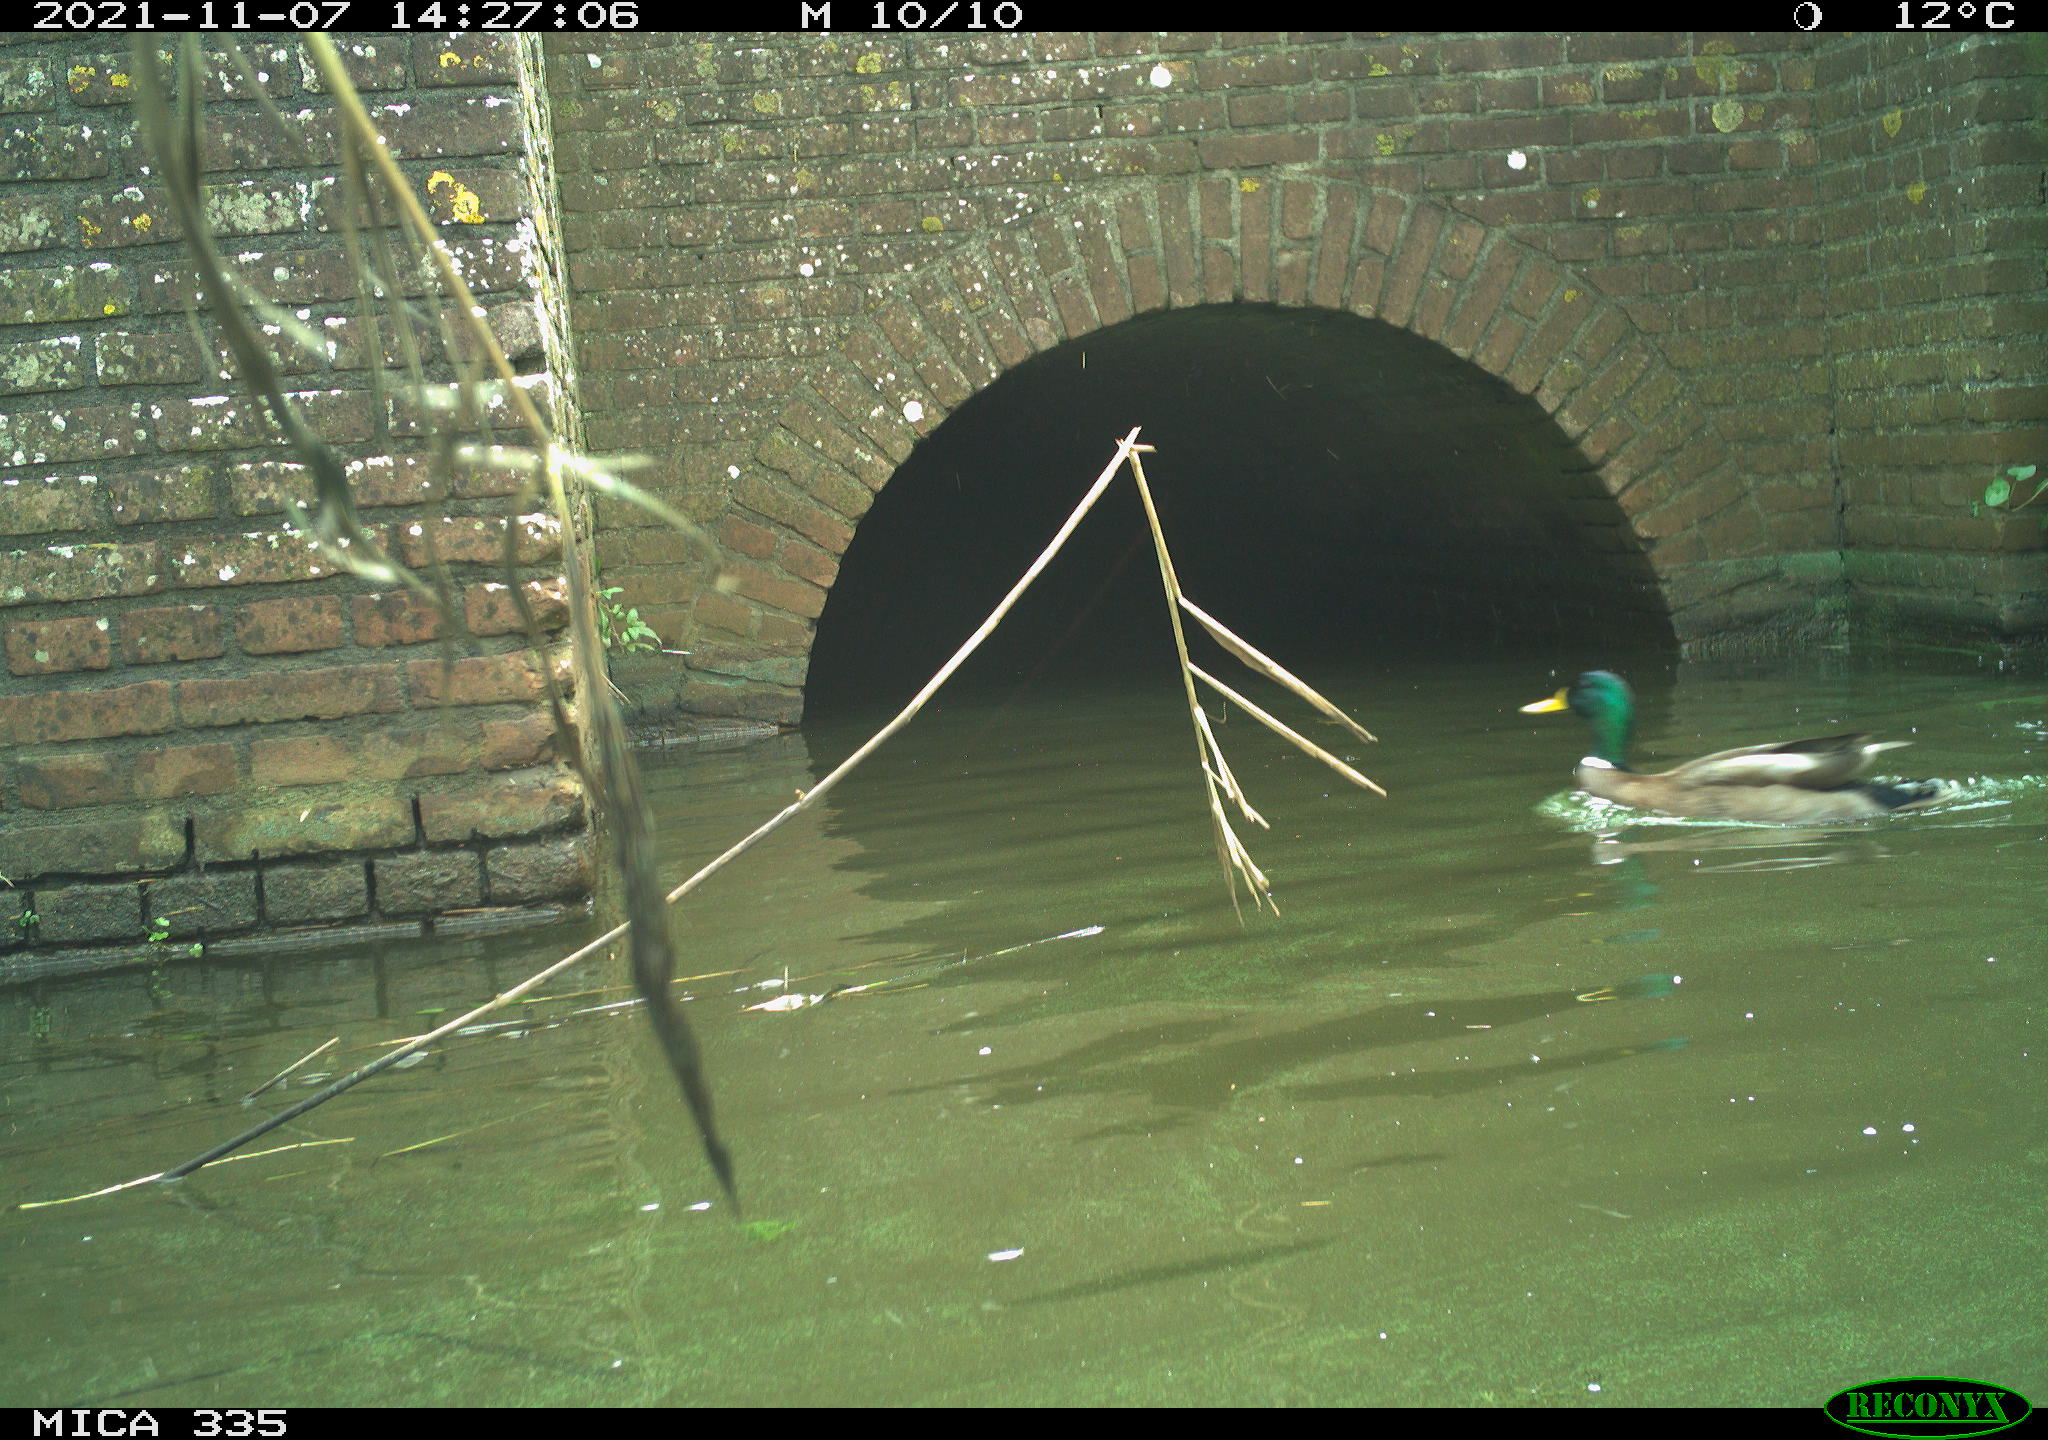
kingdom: Animalia
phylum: Chordata
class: Aves
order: Anseriformes
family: Anatidae
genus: Anas
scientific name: Anas platyrhynchos
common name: Mallard
